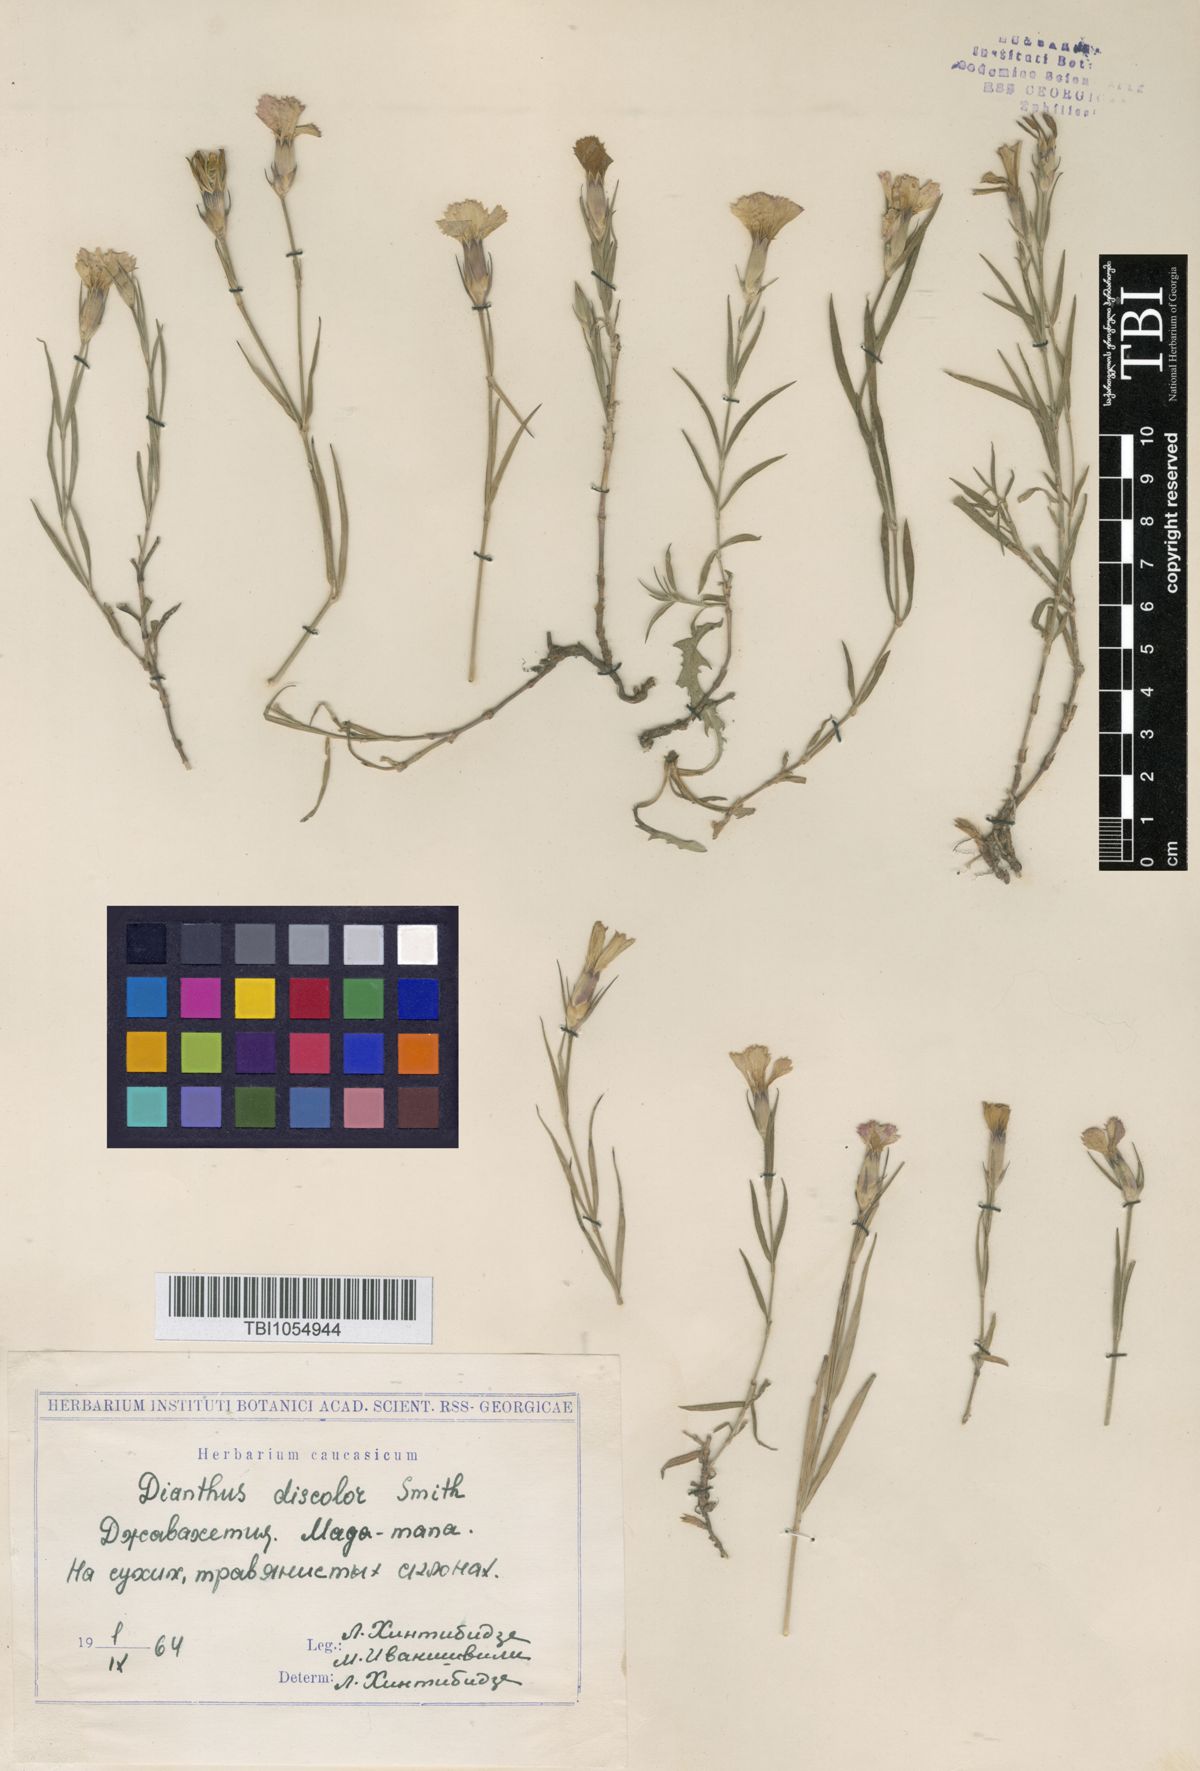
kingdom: Plantae
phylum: Tracheophyta
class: Magnoliopsida
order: Caryophyllales
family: Caryophyllaceae
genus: Dianthus
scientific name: Dianthus caucaseus
